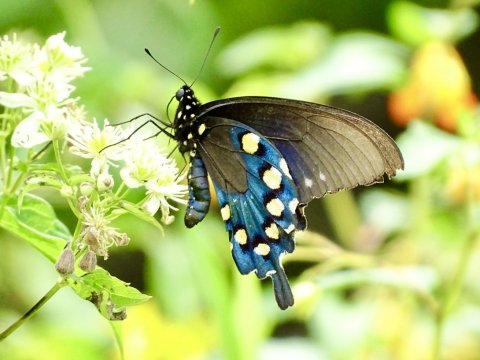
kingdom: Animalia
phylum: Arthropoda
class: Insecta
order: Lepidoptera
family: Papilionidae
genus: Battus
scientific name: Battus philenor
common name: Pipevine Swallowtail
